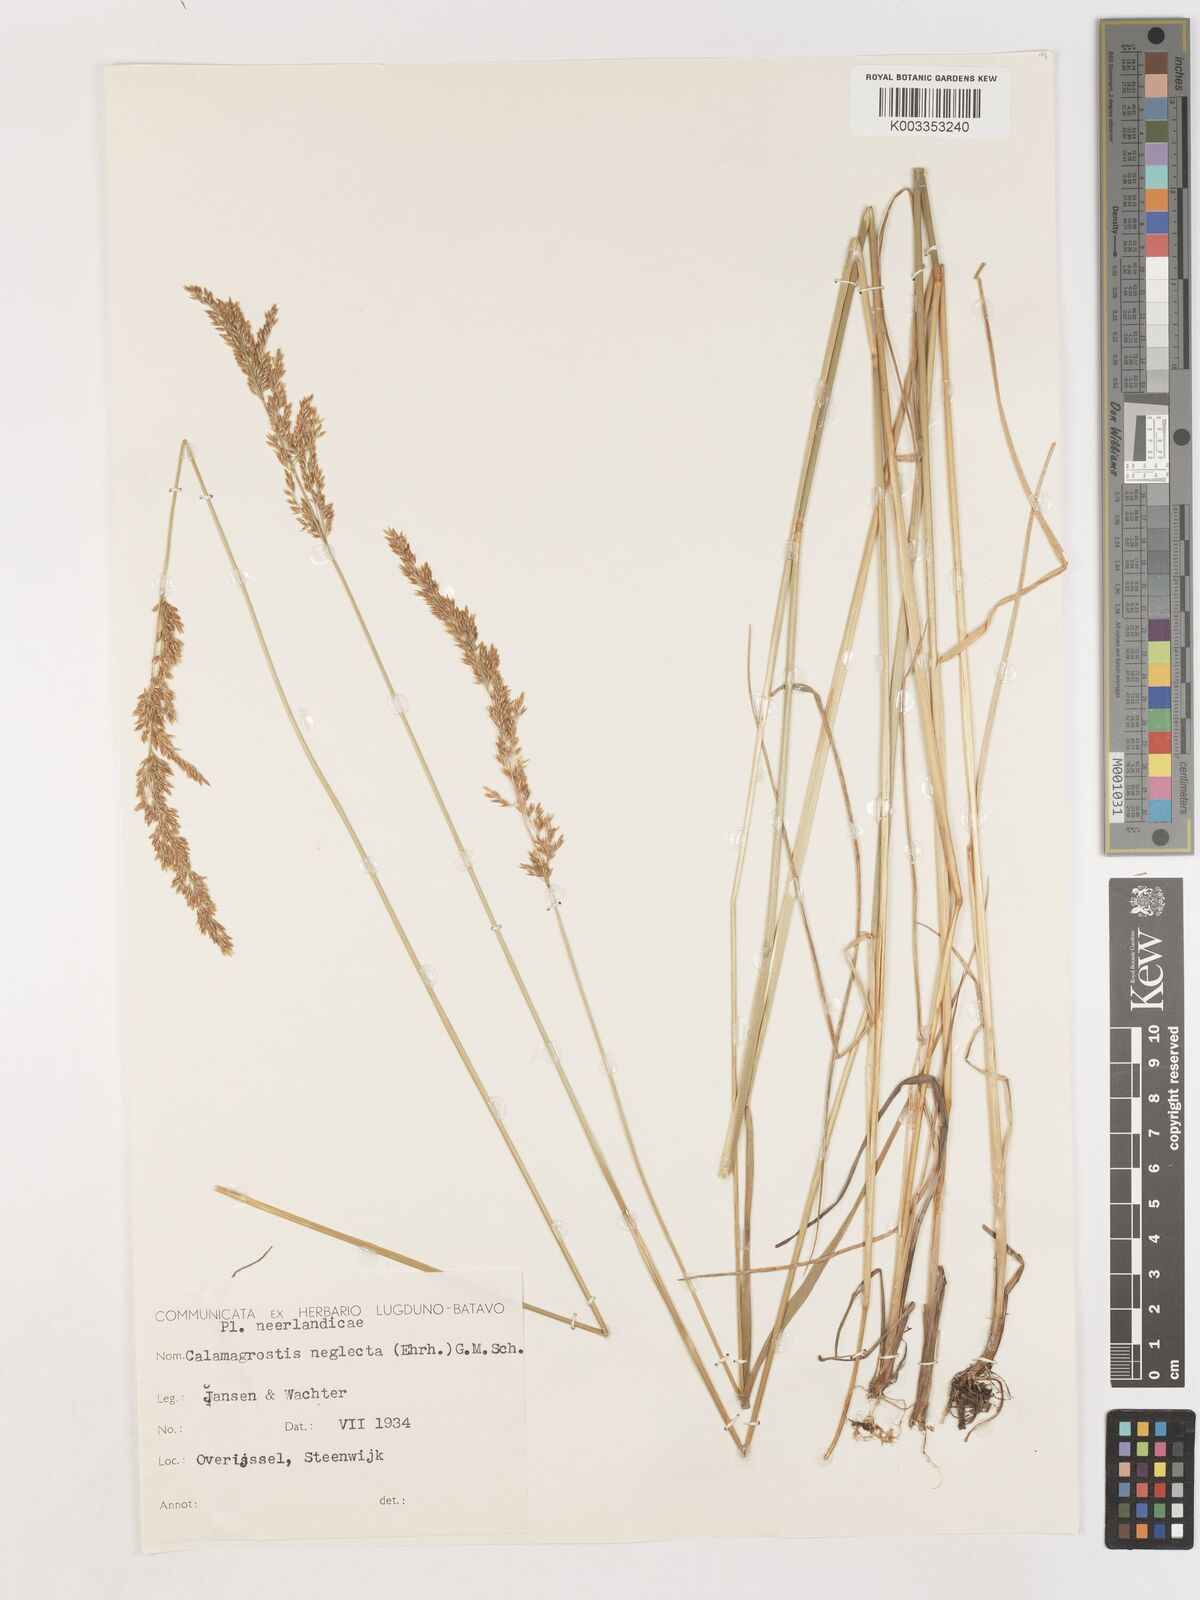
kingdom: Plantae
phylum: Tracheophyta
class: Liliopsida
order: Poales
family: Poaceae
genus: Cinnagrostis
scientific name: Cinnagrostis recta
